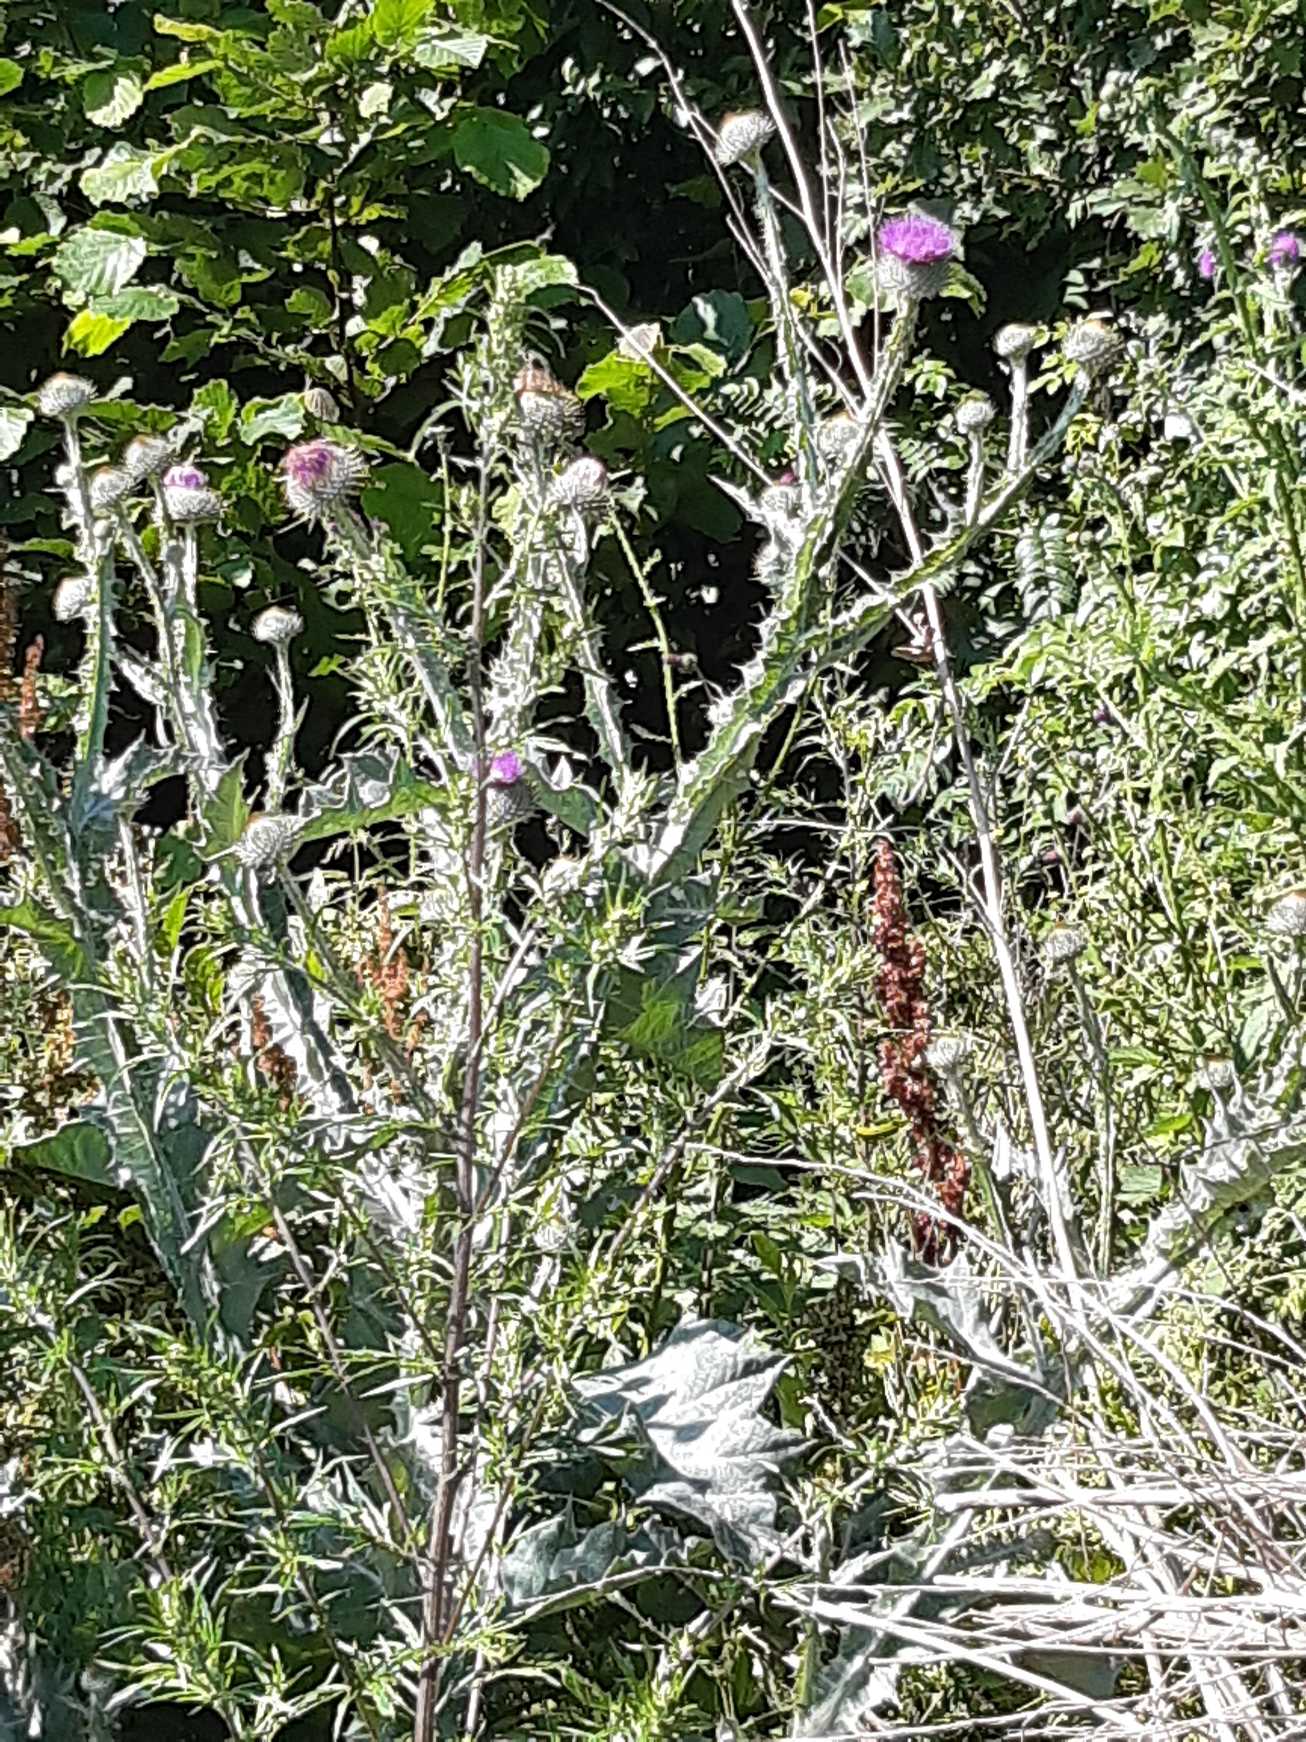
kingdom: Plantae
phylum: Tracheophyta
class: Magnoliopsida
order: Asterales
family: Asteraceae
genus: Onopordum
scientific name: Onopordum acanthium
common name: Æselfoder
